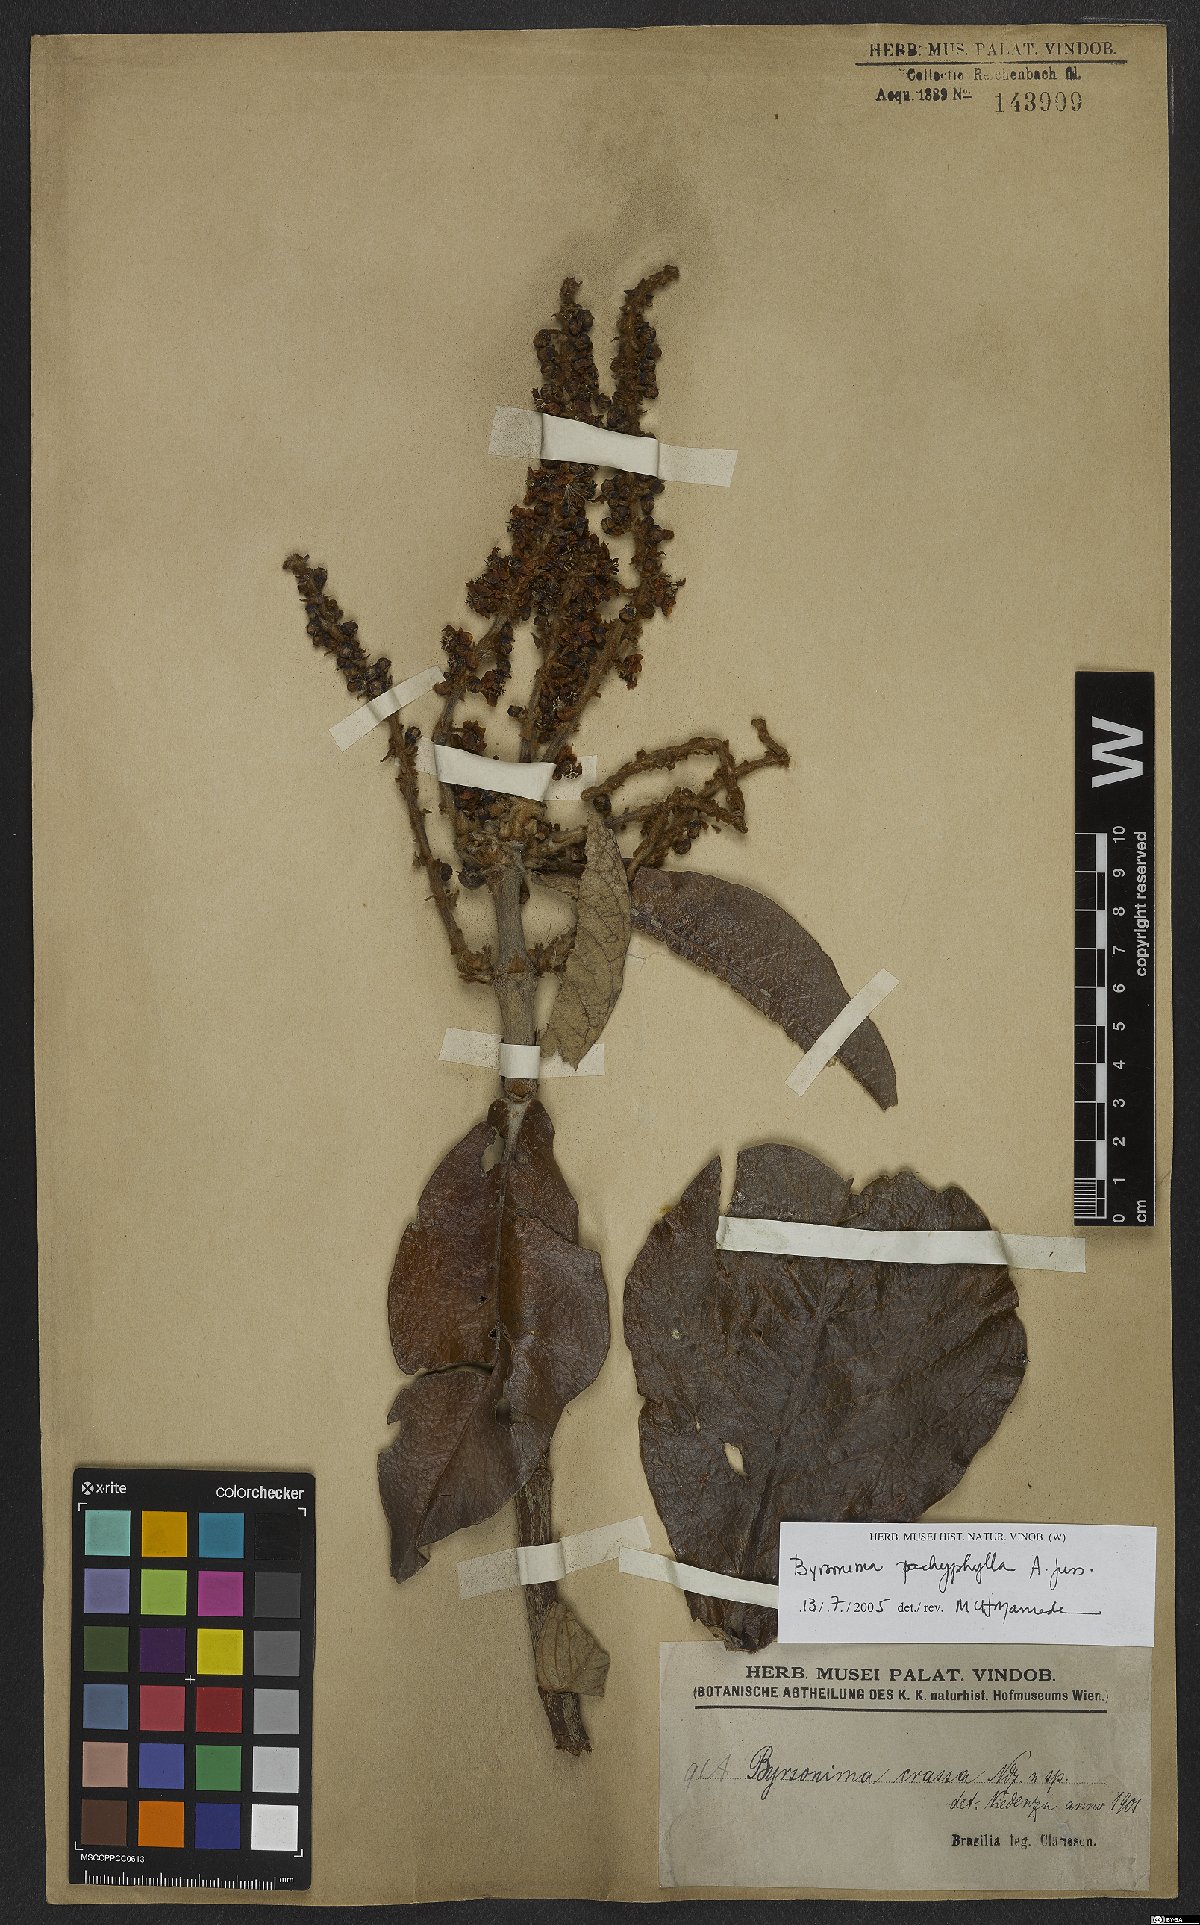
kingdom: Plantae
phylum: Tracheophyta
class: Magnoliopsida
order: Malpighiales
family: Malpighiaceae
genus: Byrsonima
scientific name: Byrsonima pachyphylla
